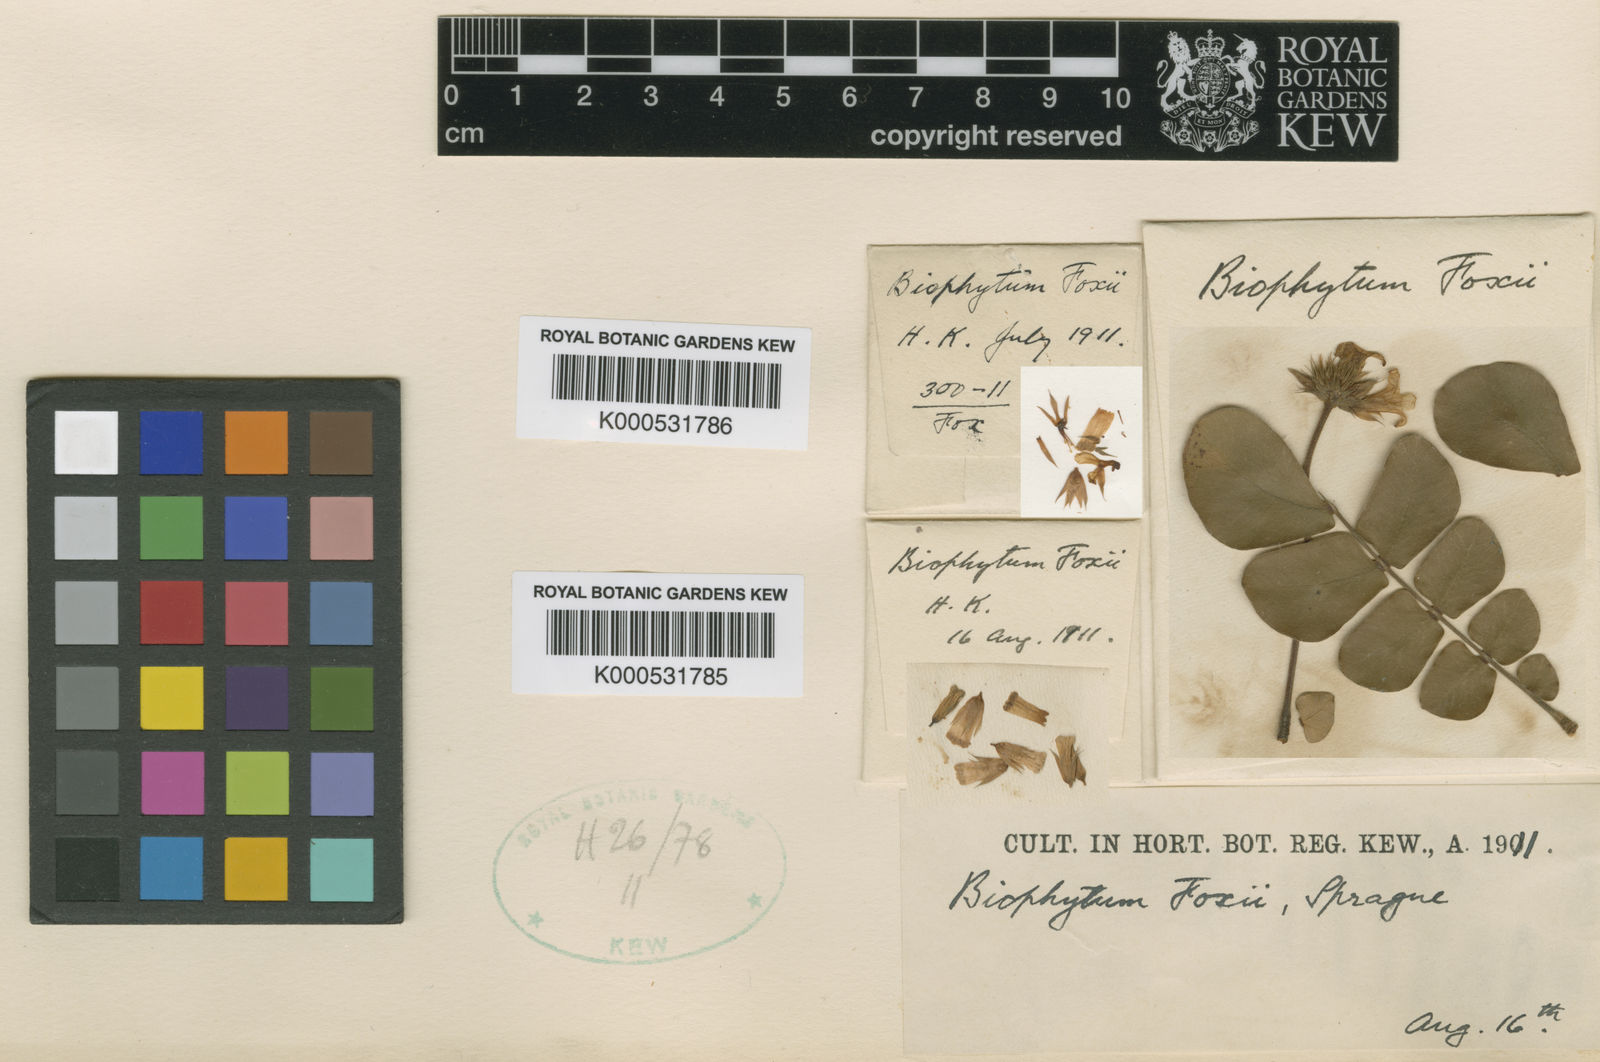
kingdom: Plantae
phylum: Tracheophyta
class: Magnoliopsida
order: Oxalidales
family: Oxalidaceae
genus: Biophytum
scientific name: Biophytum foxii
